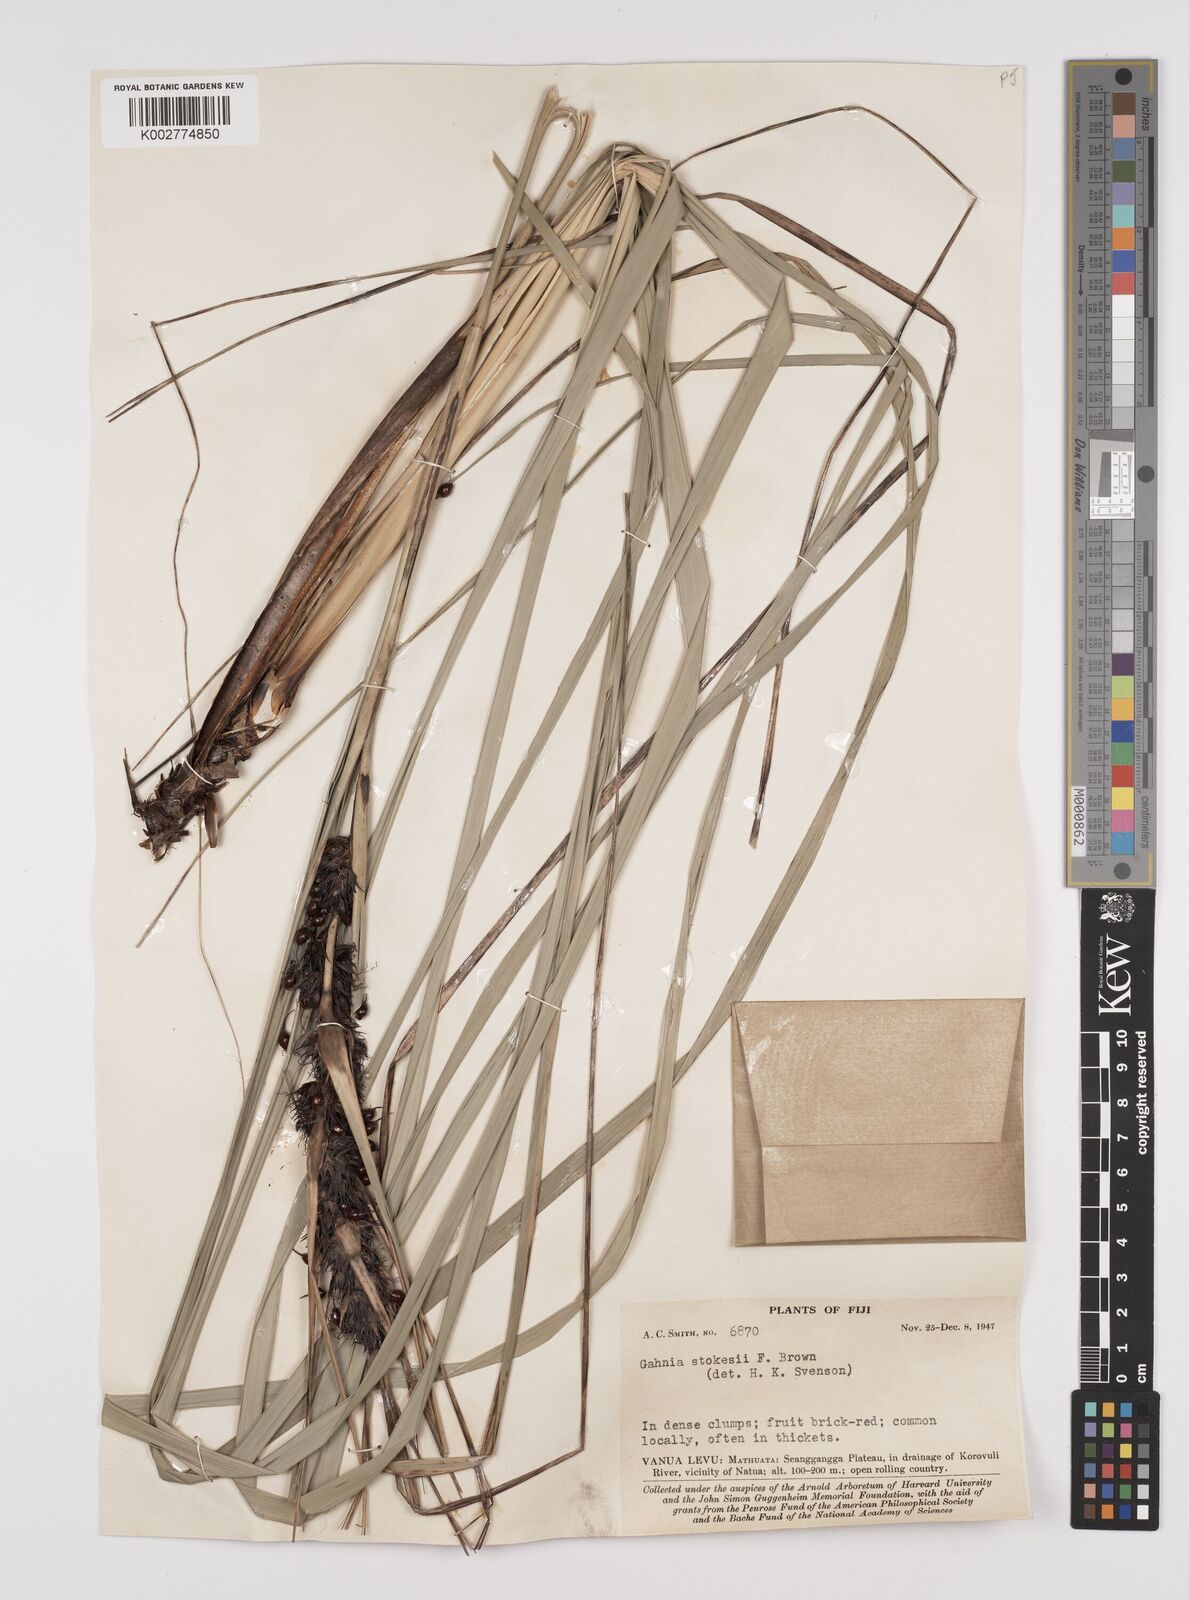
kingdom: Plantae
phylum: Tracheophyta
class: Liliopsida
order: Poales
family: Cyperaceae
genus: Gahnia
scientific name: Gahnia aspera
